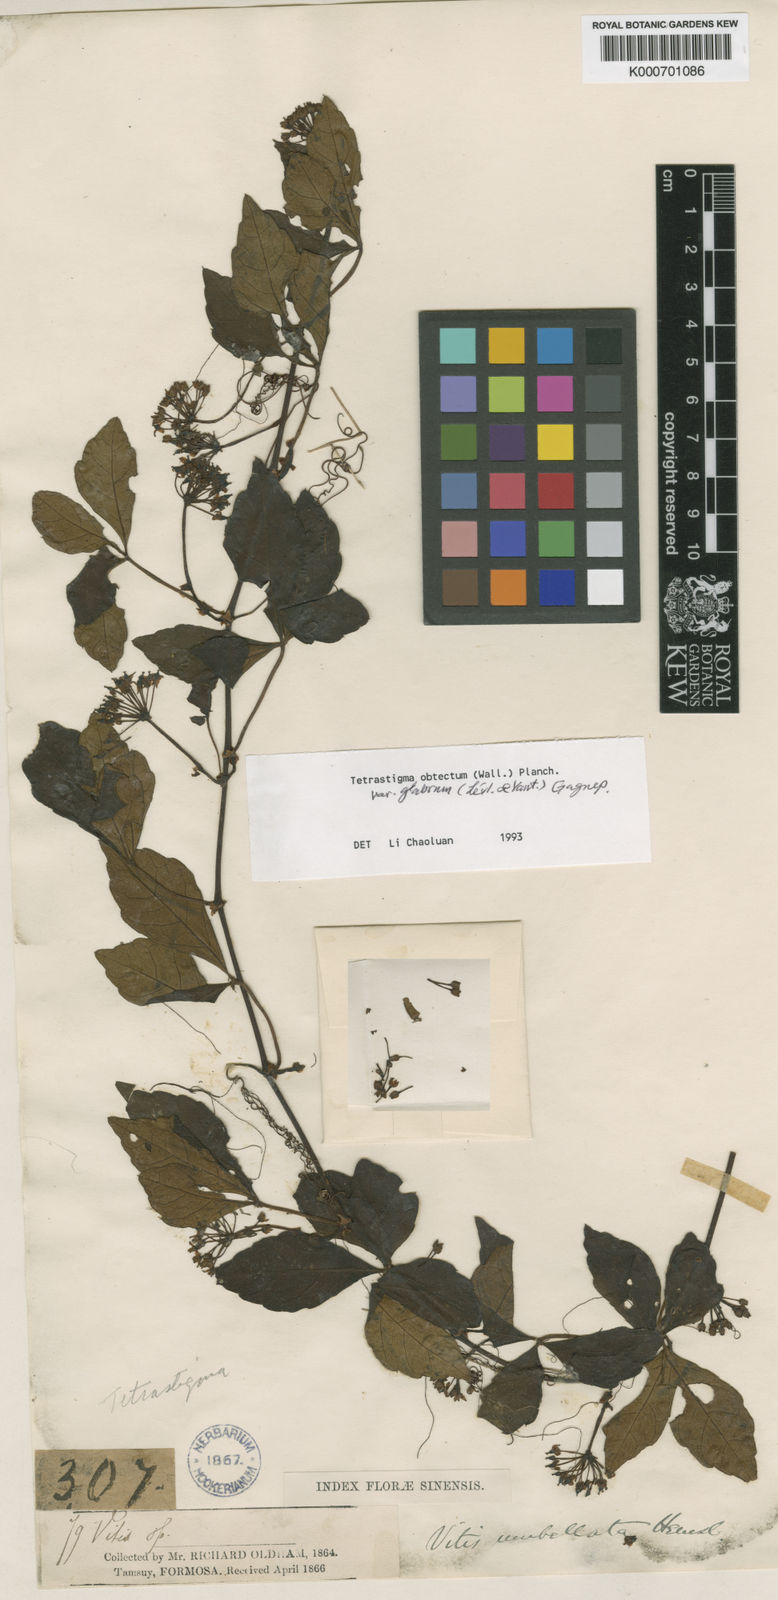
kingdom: Plantae
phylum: Tracheophyta
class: Magnoliopsida
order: Vitales
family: Vitaceae
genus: Tetrastigma
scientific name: Tetrastigma obtectum
